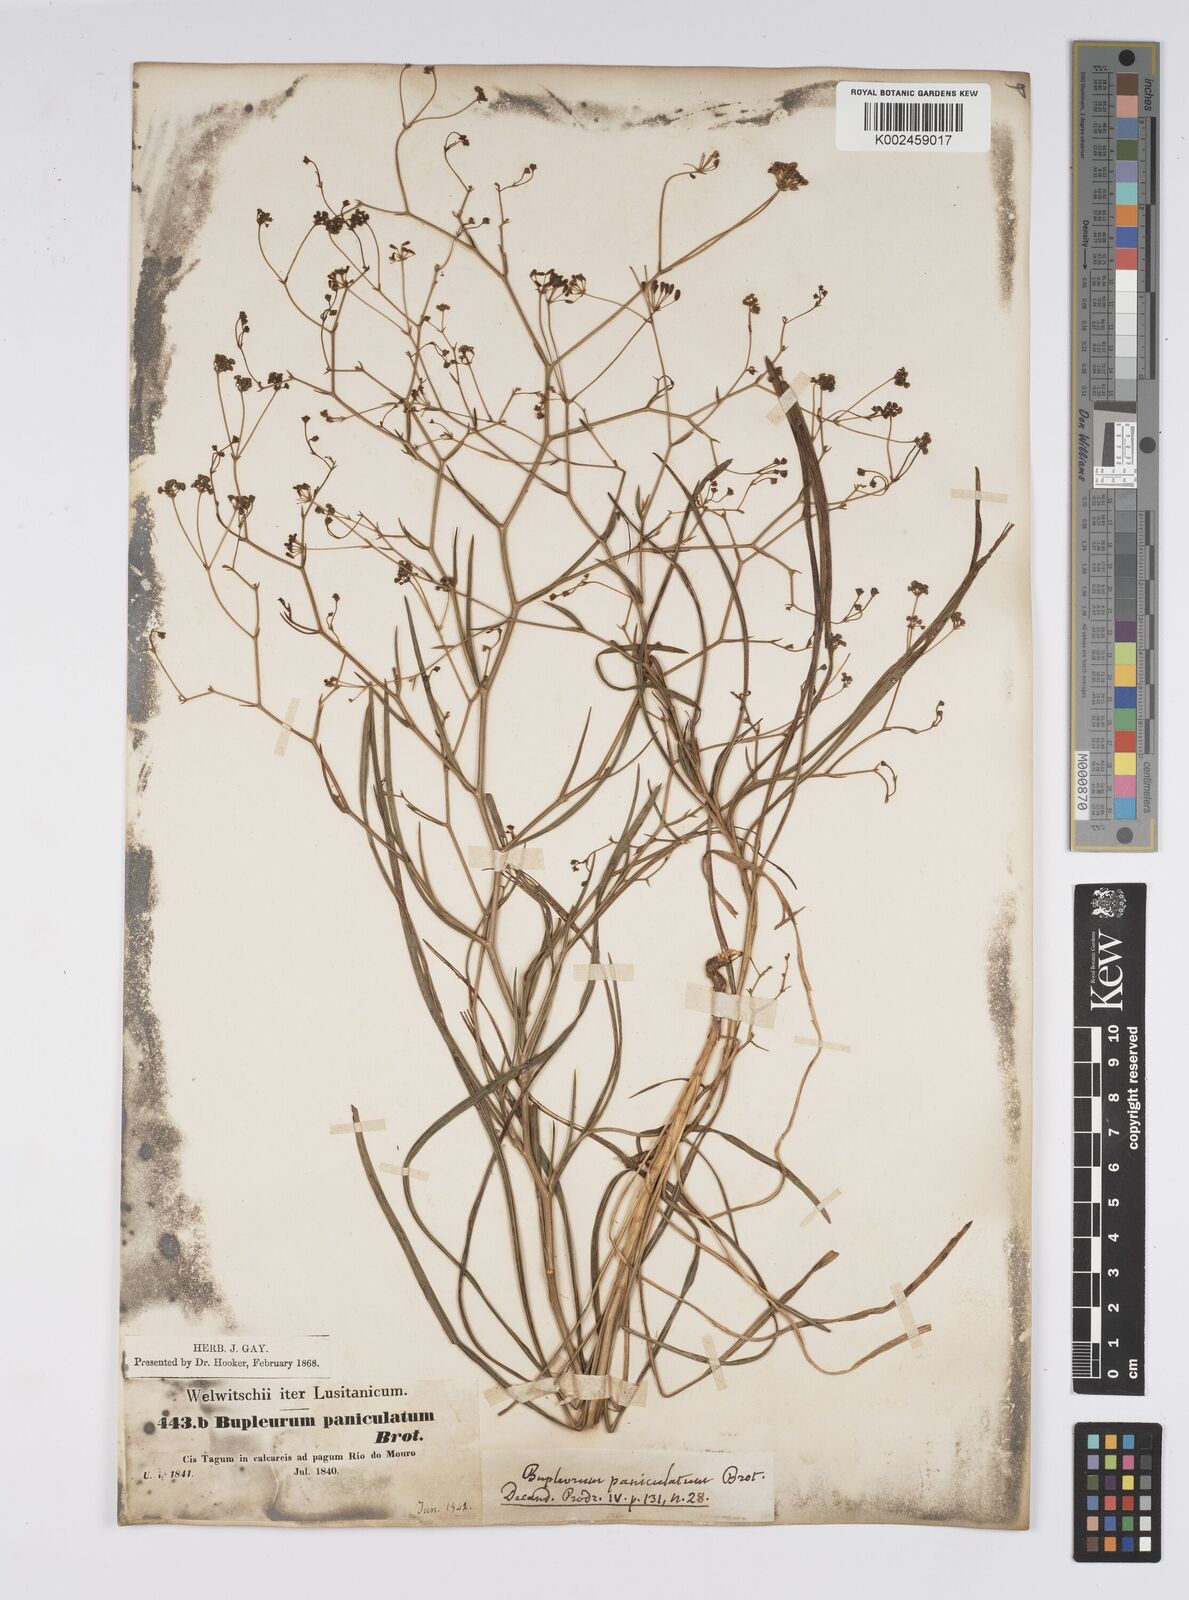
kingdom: Plantae
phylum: Tracheophyta
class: Magnoliopsida
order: Apiales
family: Apiaceae
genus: Bupleurum
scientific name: Bupleurum rigidum
